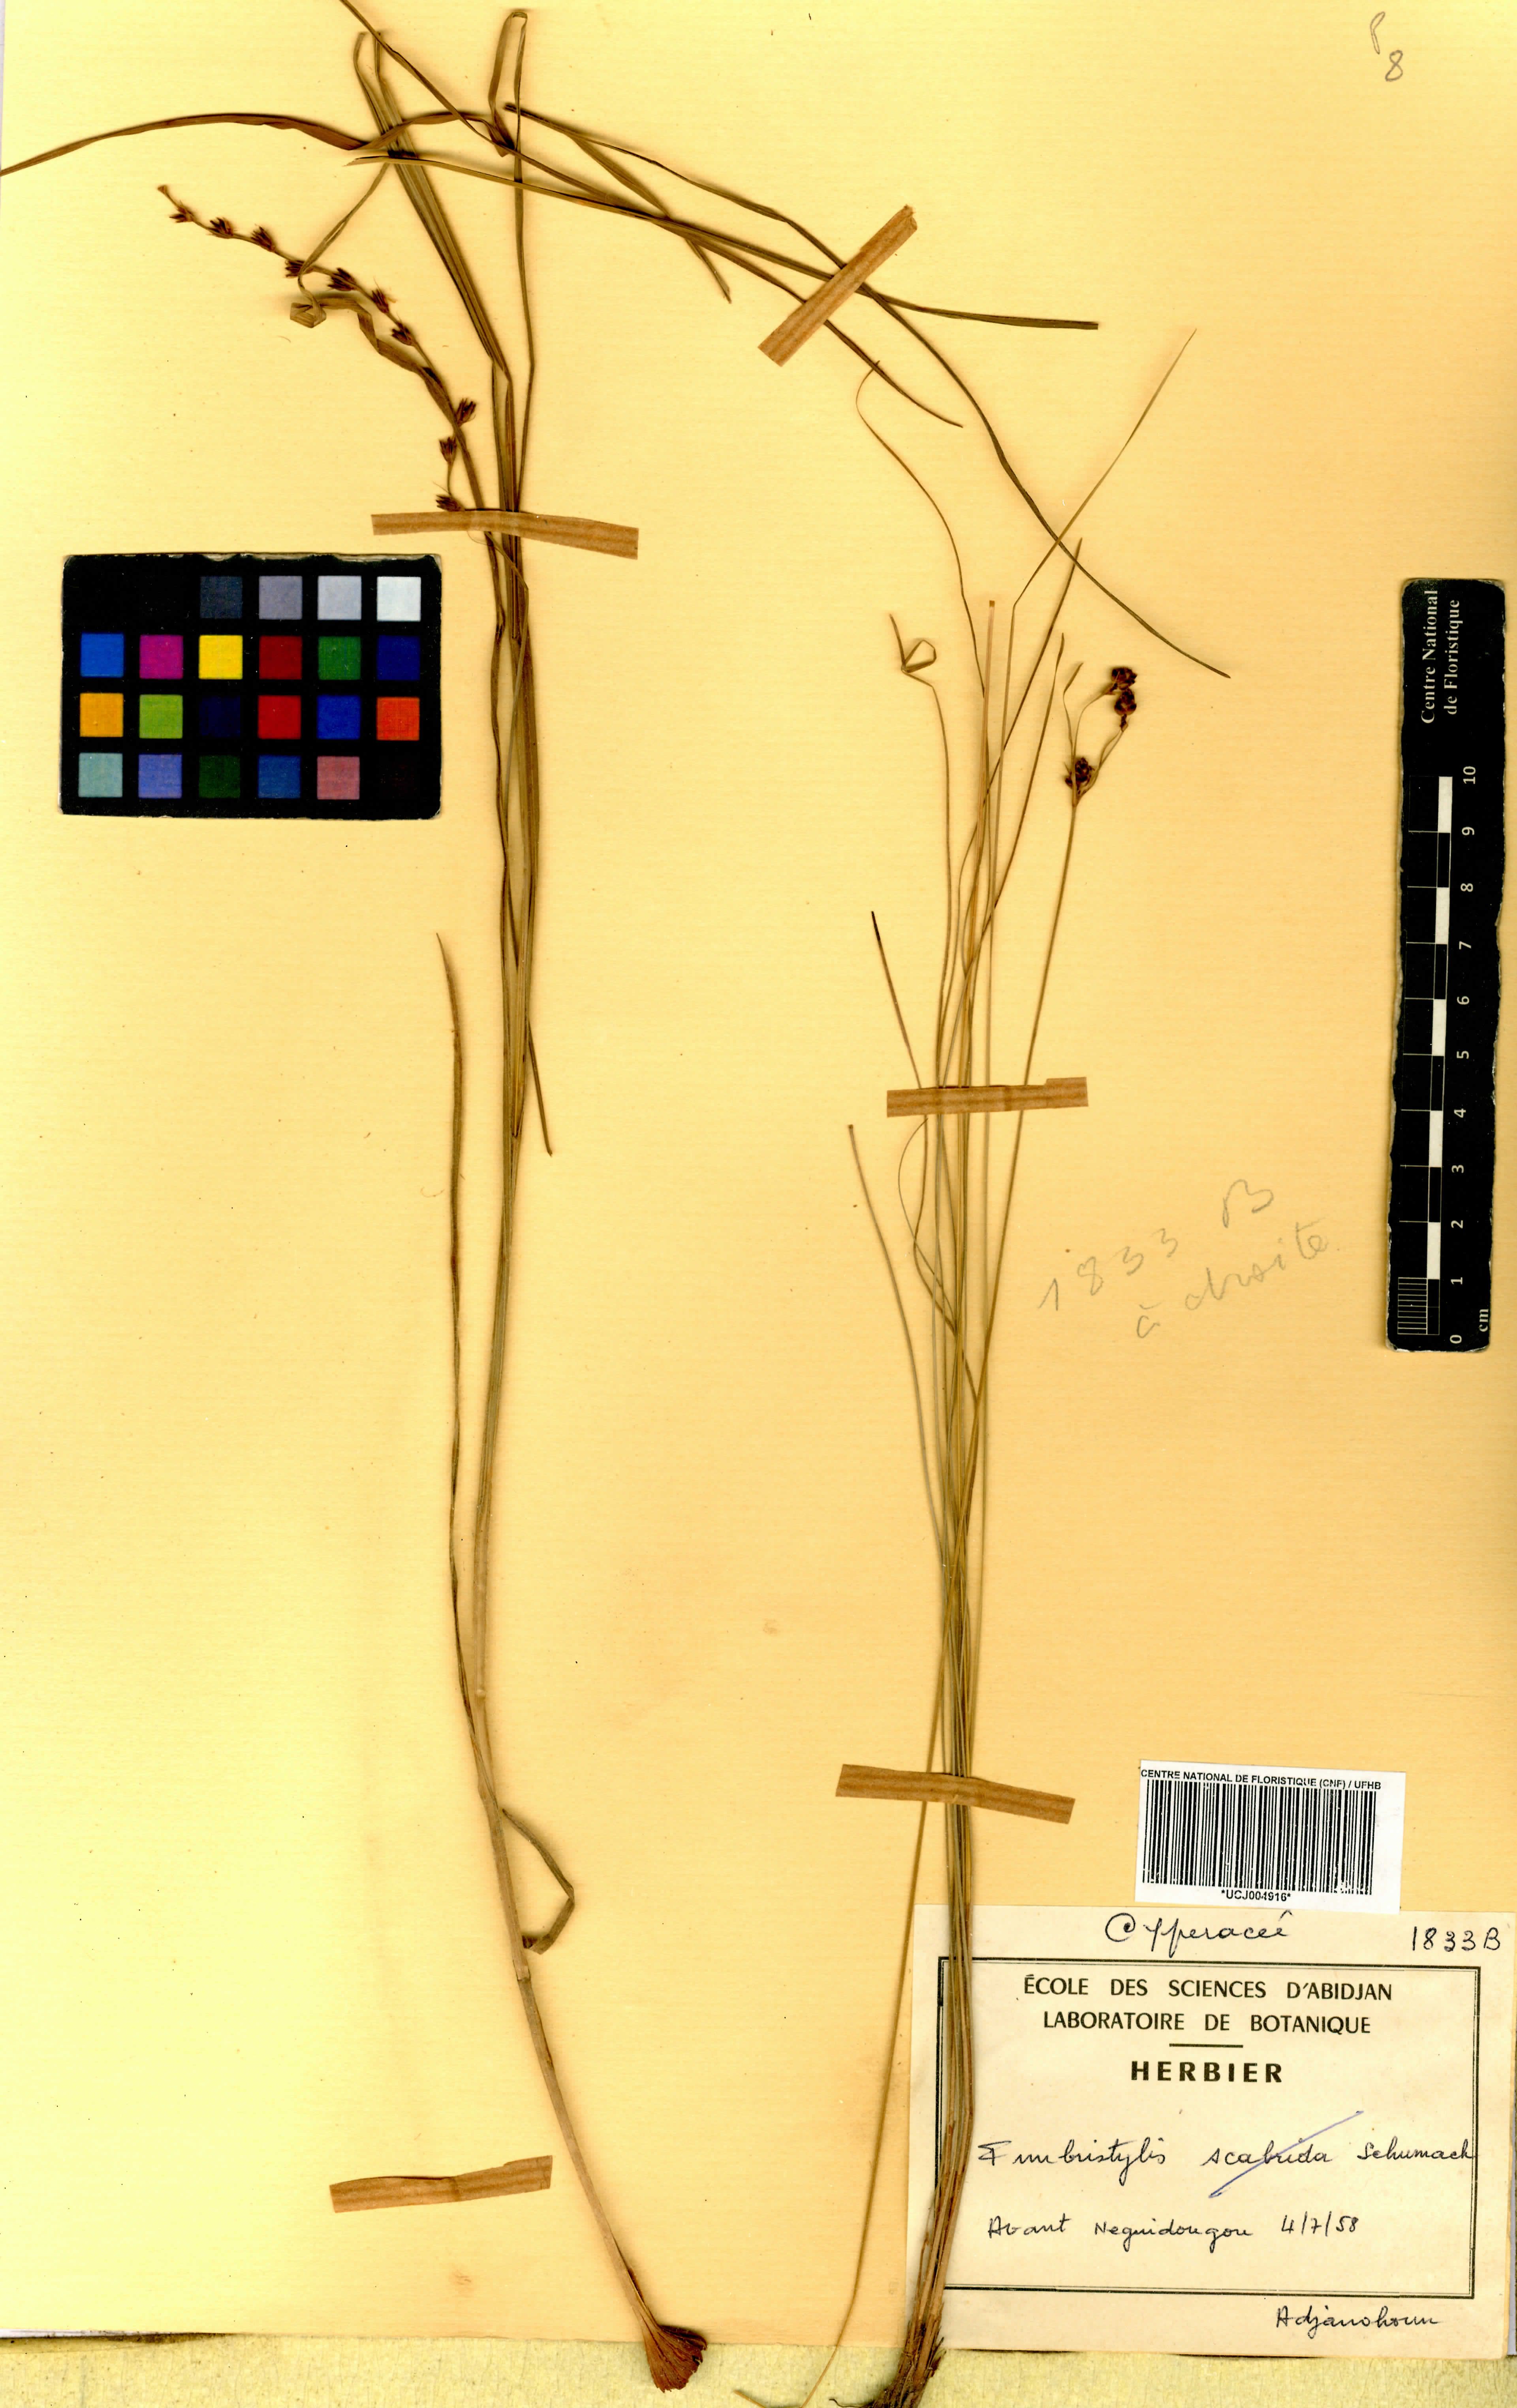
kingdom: Plantae
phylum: Tracheophyta
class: Liliopsida
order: Poales
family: Cyperaceae
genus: Fimbristylis
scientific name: Fimbristylis scabrida
